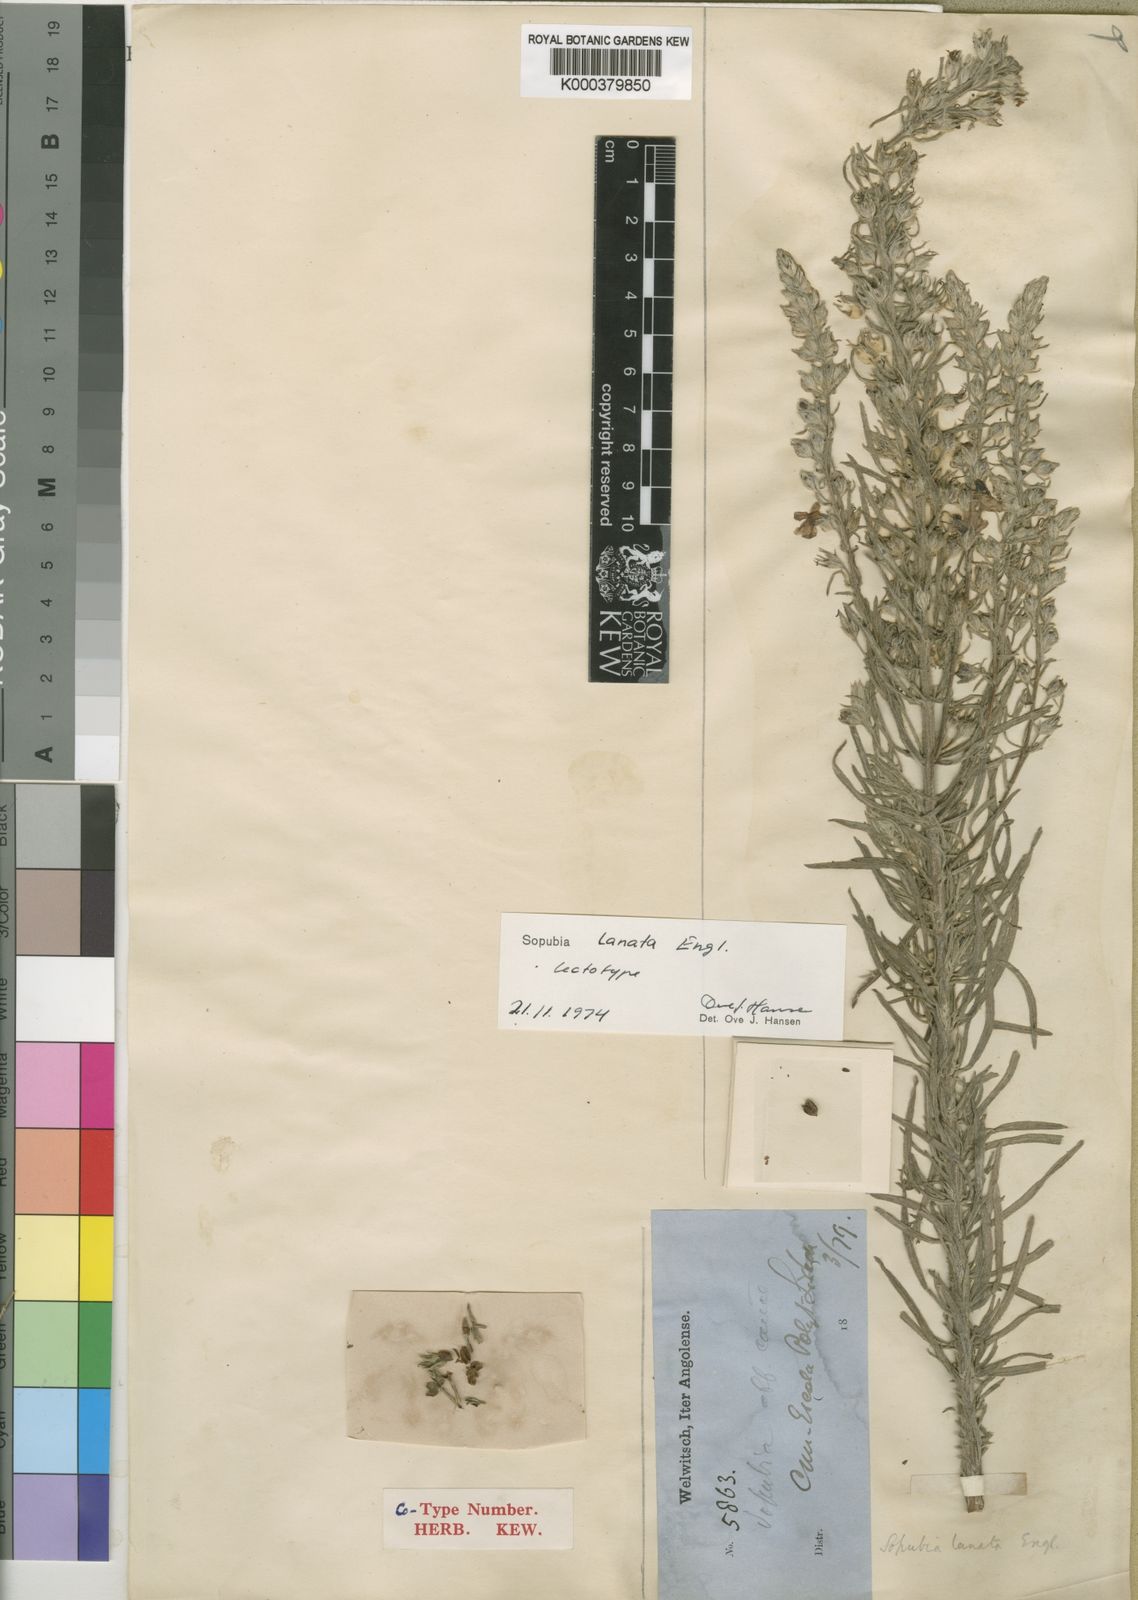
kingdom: Plantae
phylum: Tracheophyta
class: Magnoliopsida
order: Lamiales
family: Orobanchaceae
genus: Sopubia
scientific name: Sopubia lanata
